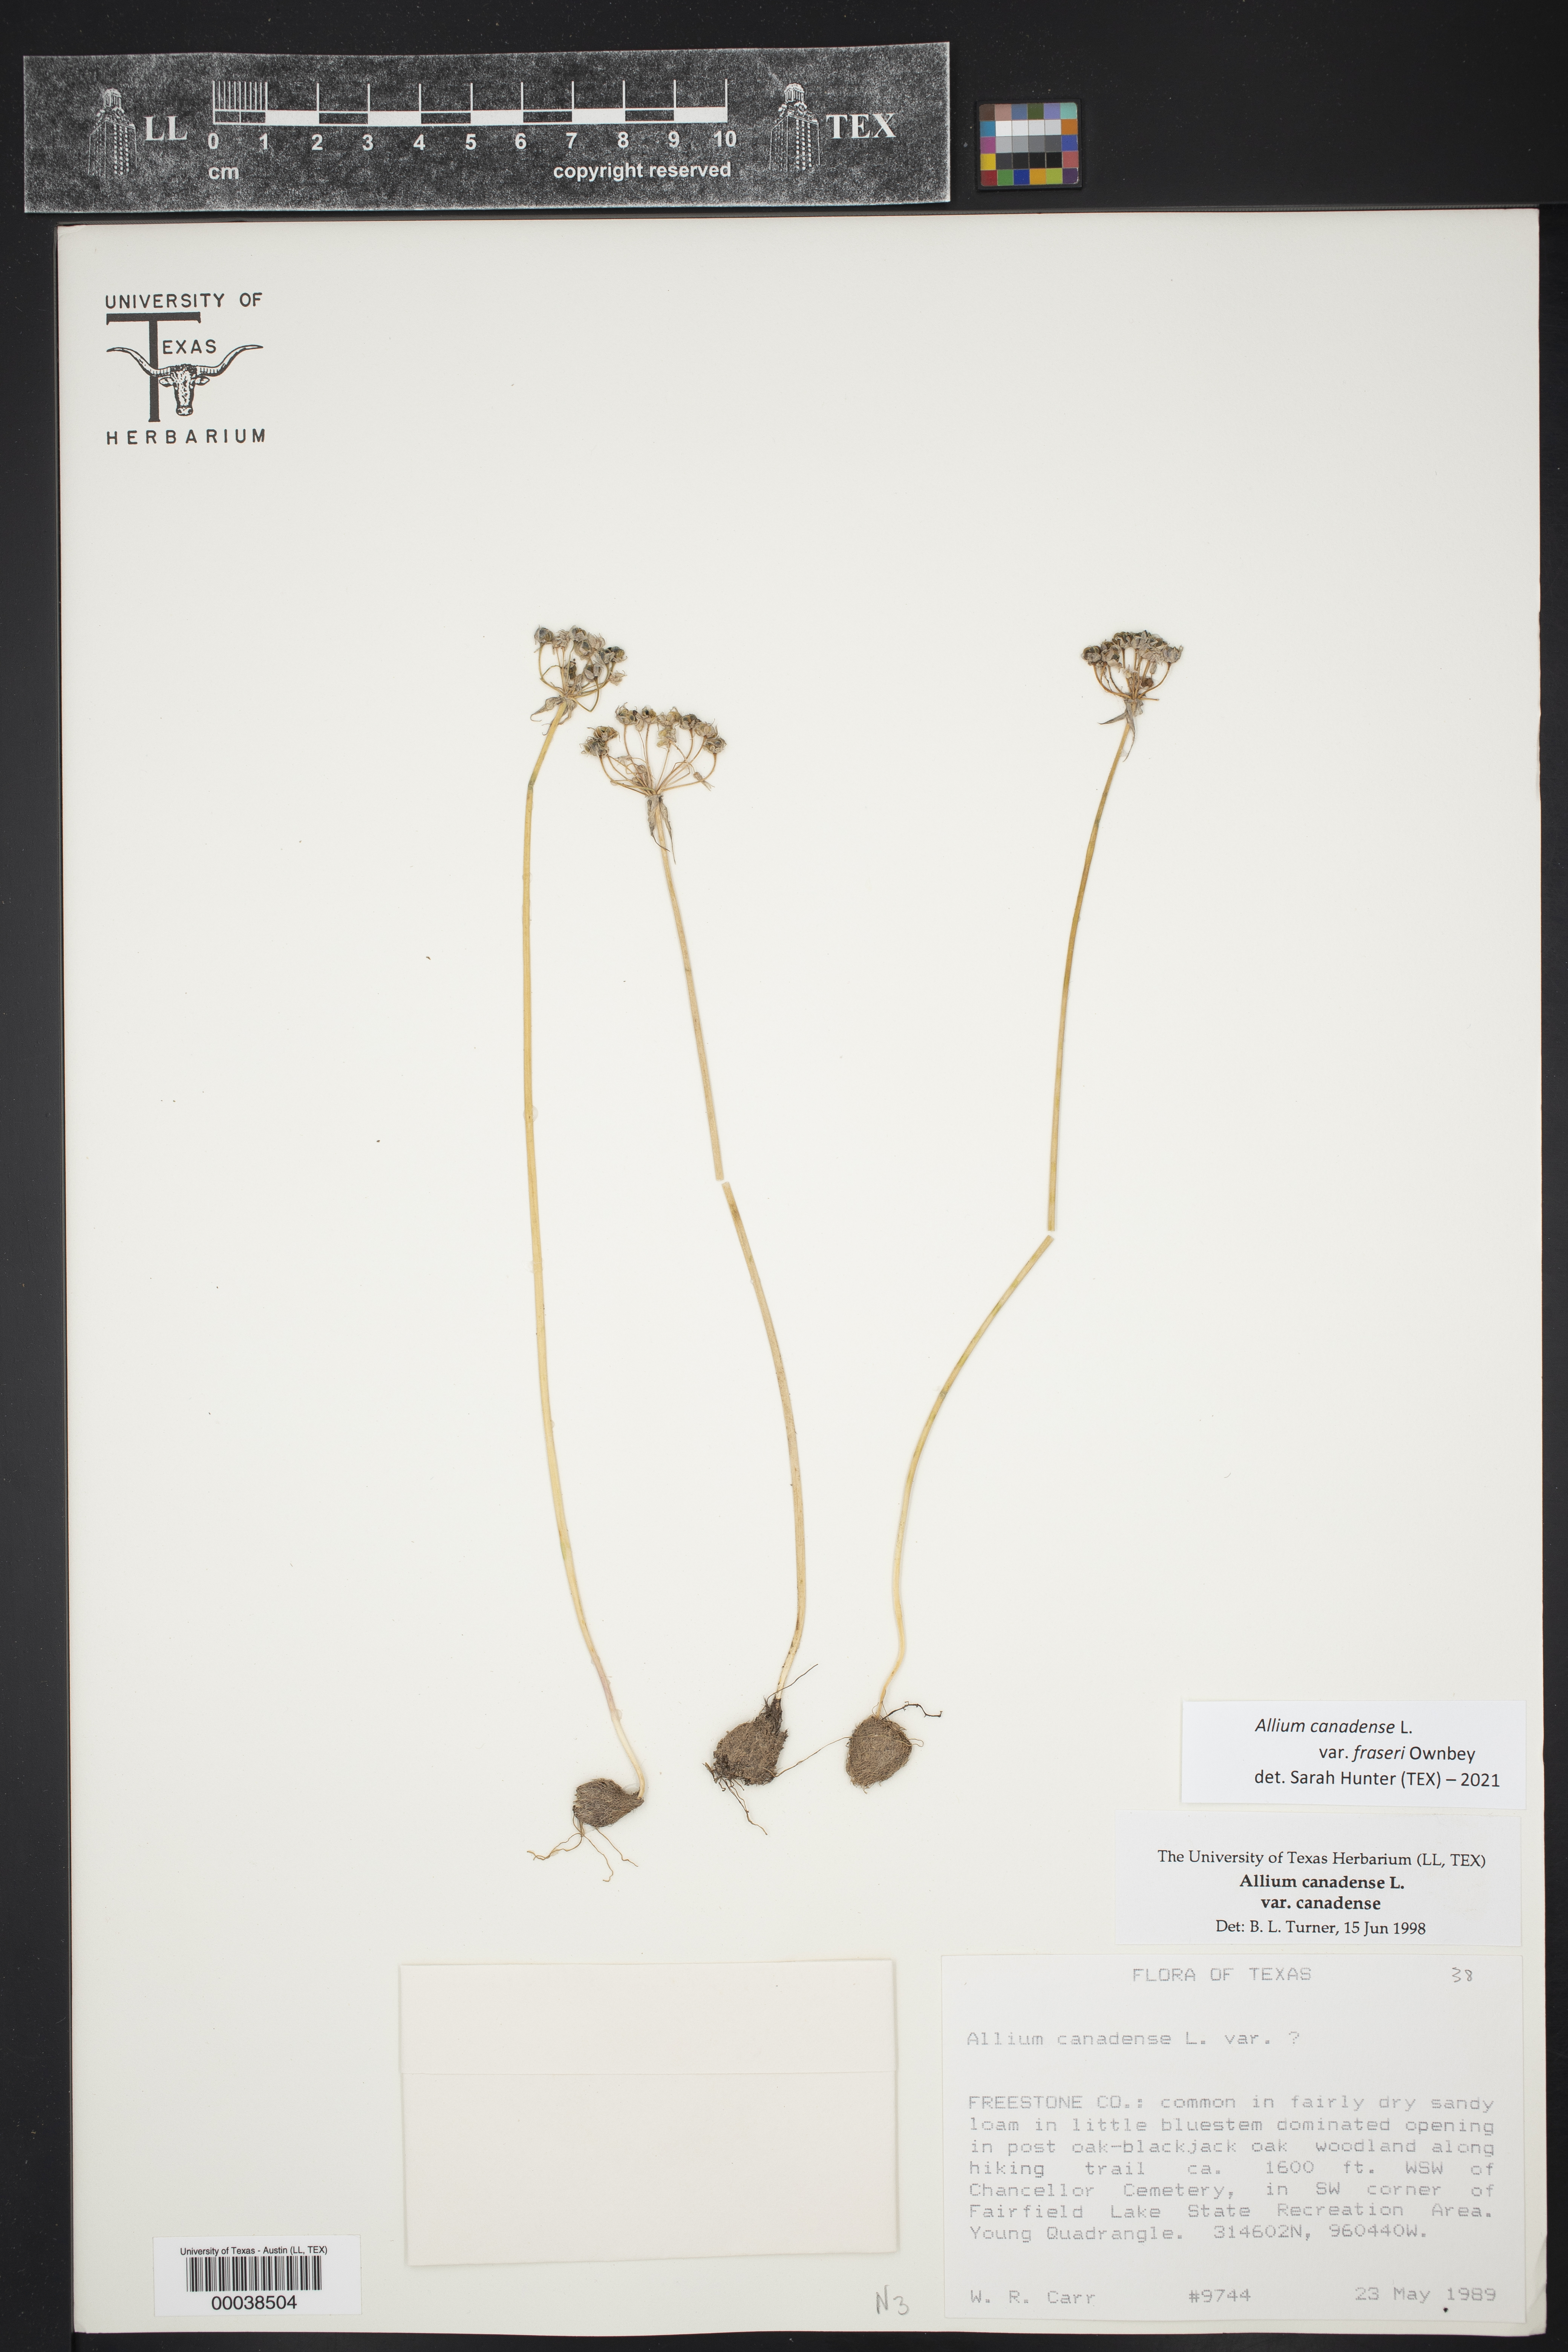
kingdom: Plantae
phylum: Tracheophyta
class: Liliopsida
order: Asparagales
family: Amaryllidaceae
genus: Allium
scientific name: Allium fraseri
